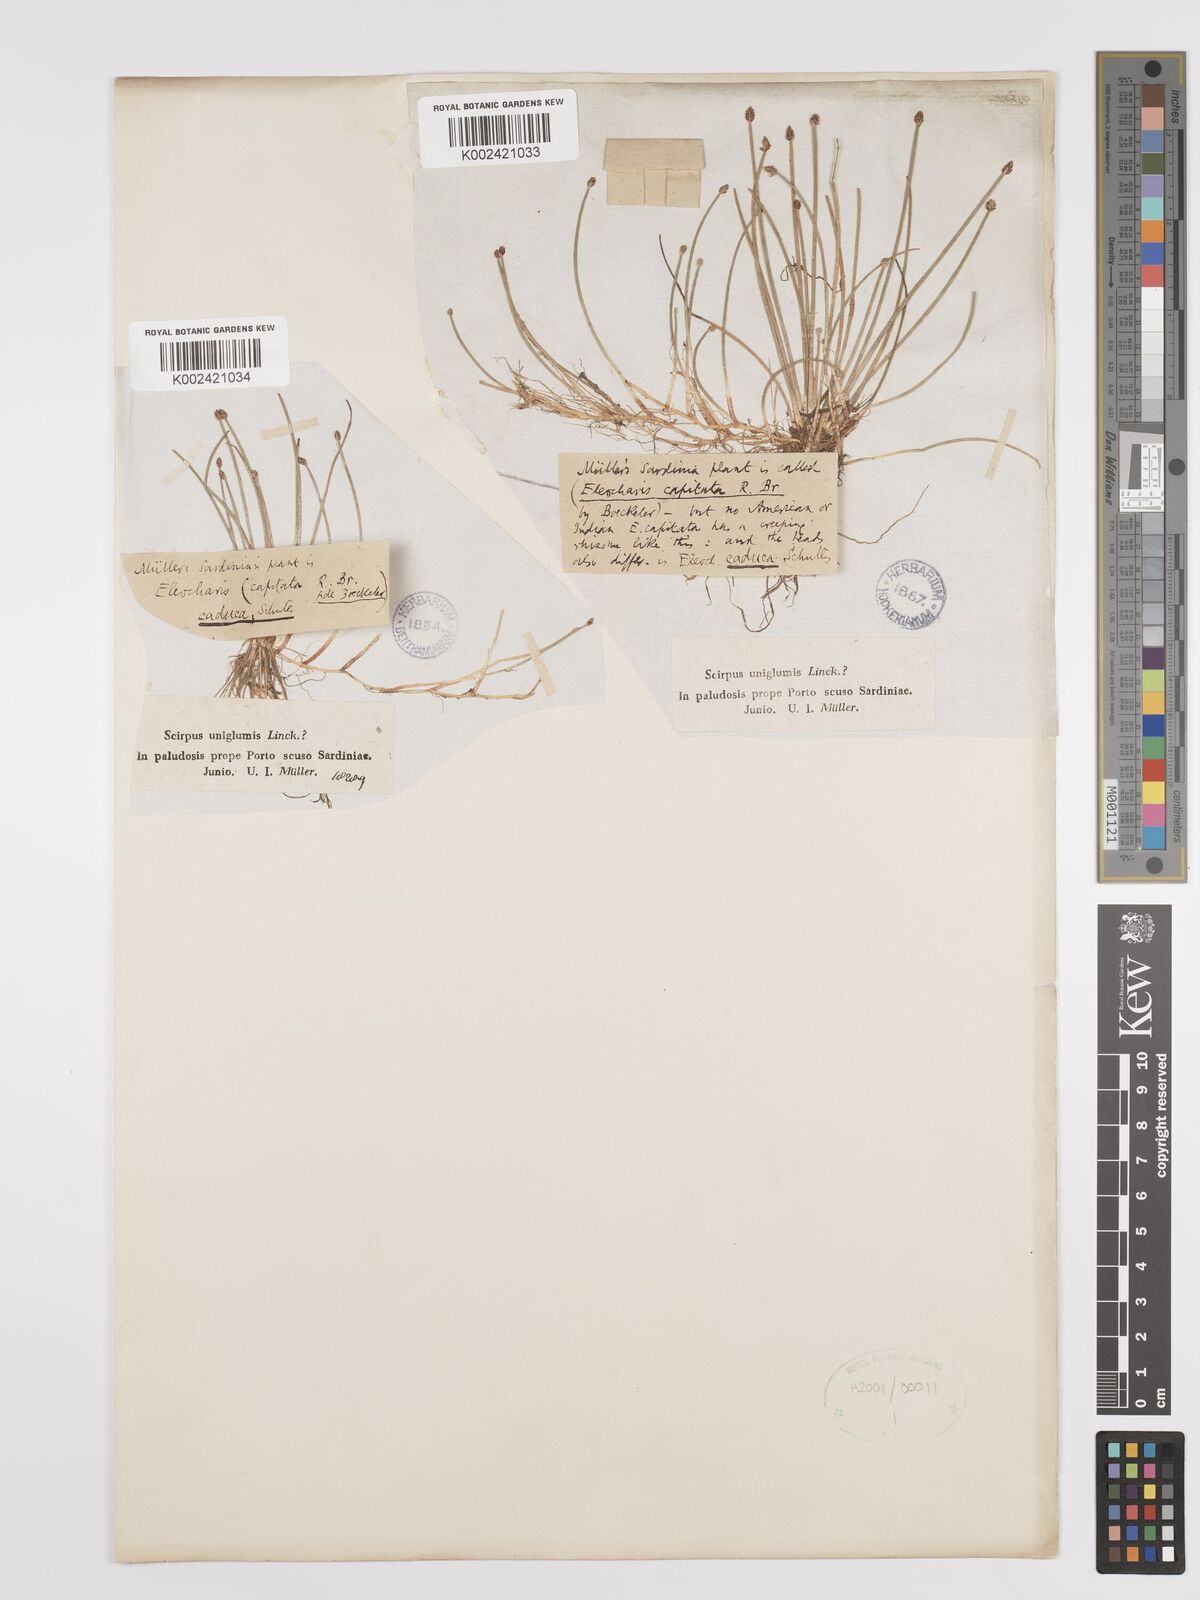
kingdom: Plantae
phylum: Tracheophyta
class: Liliopsida
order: Poales
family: Cyperaceae
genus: Eleocharis
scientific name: Eleocharis geniculata
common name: Canada spikesedge
